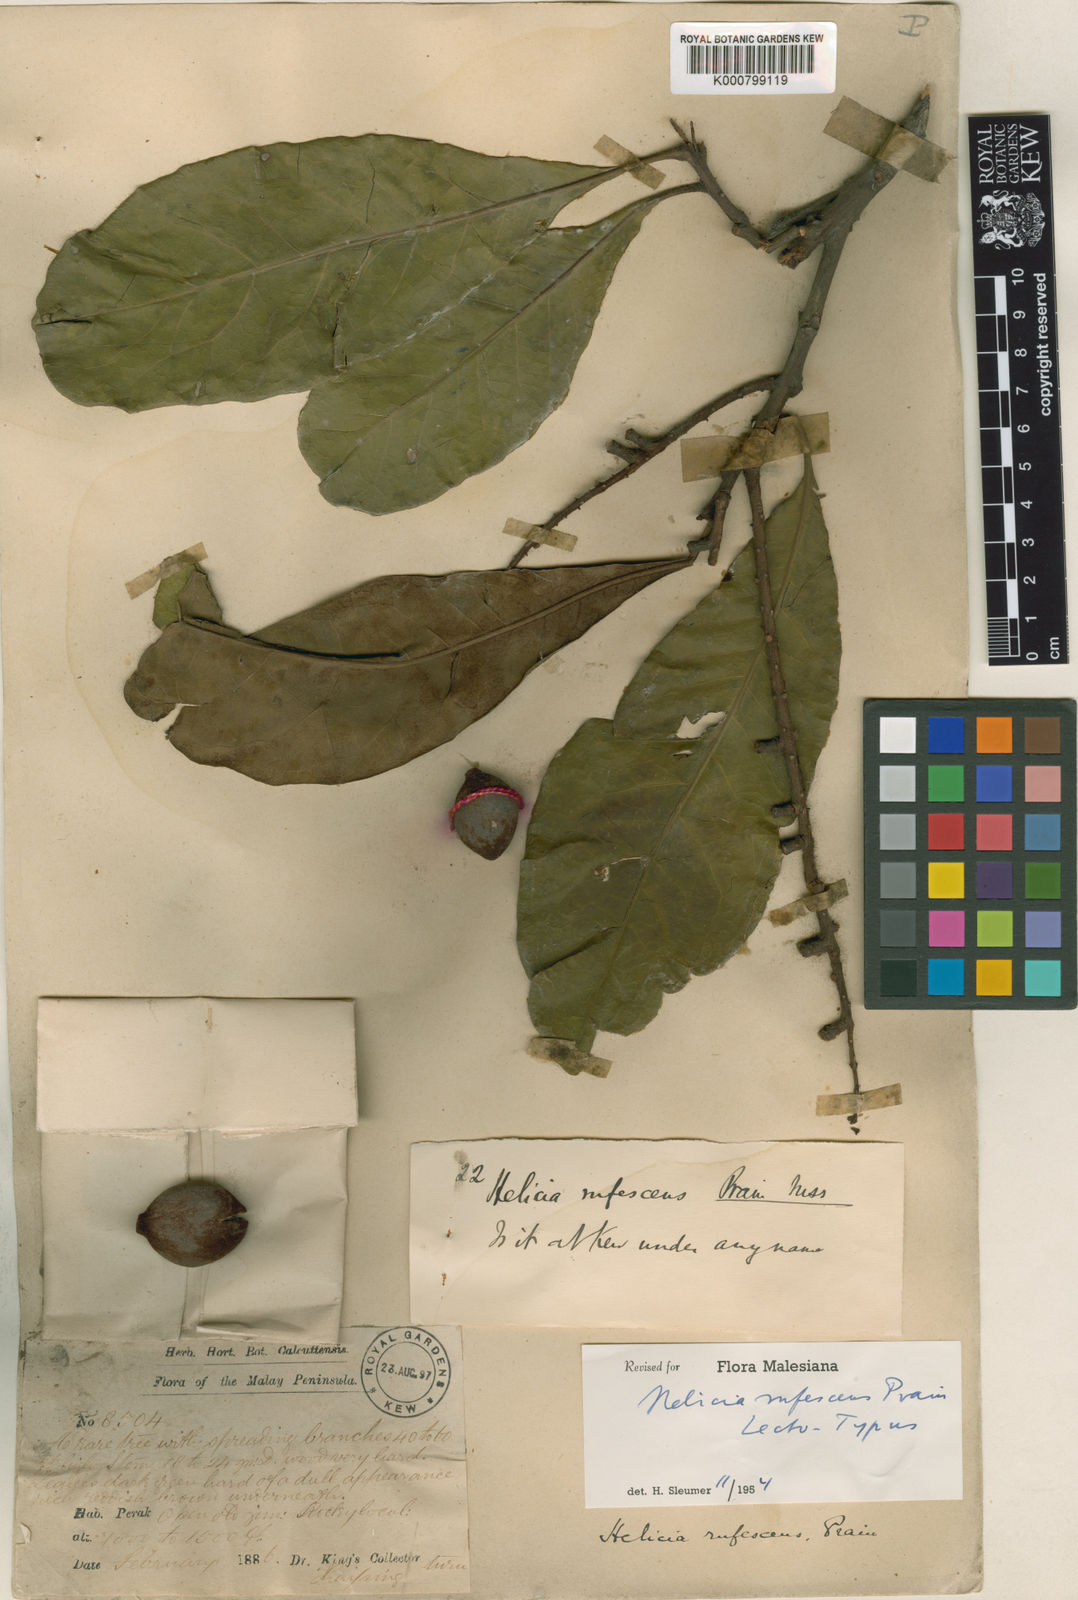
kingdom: Plantae
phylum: Tracheophyta
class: Magnoliopsida
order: Proteales
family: Proteaceae
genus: Helicia
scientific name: Helicia rufescens
